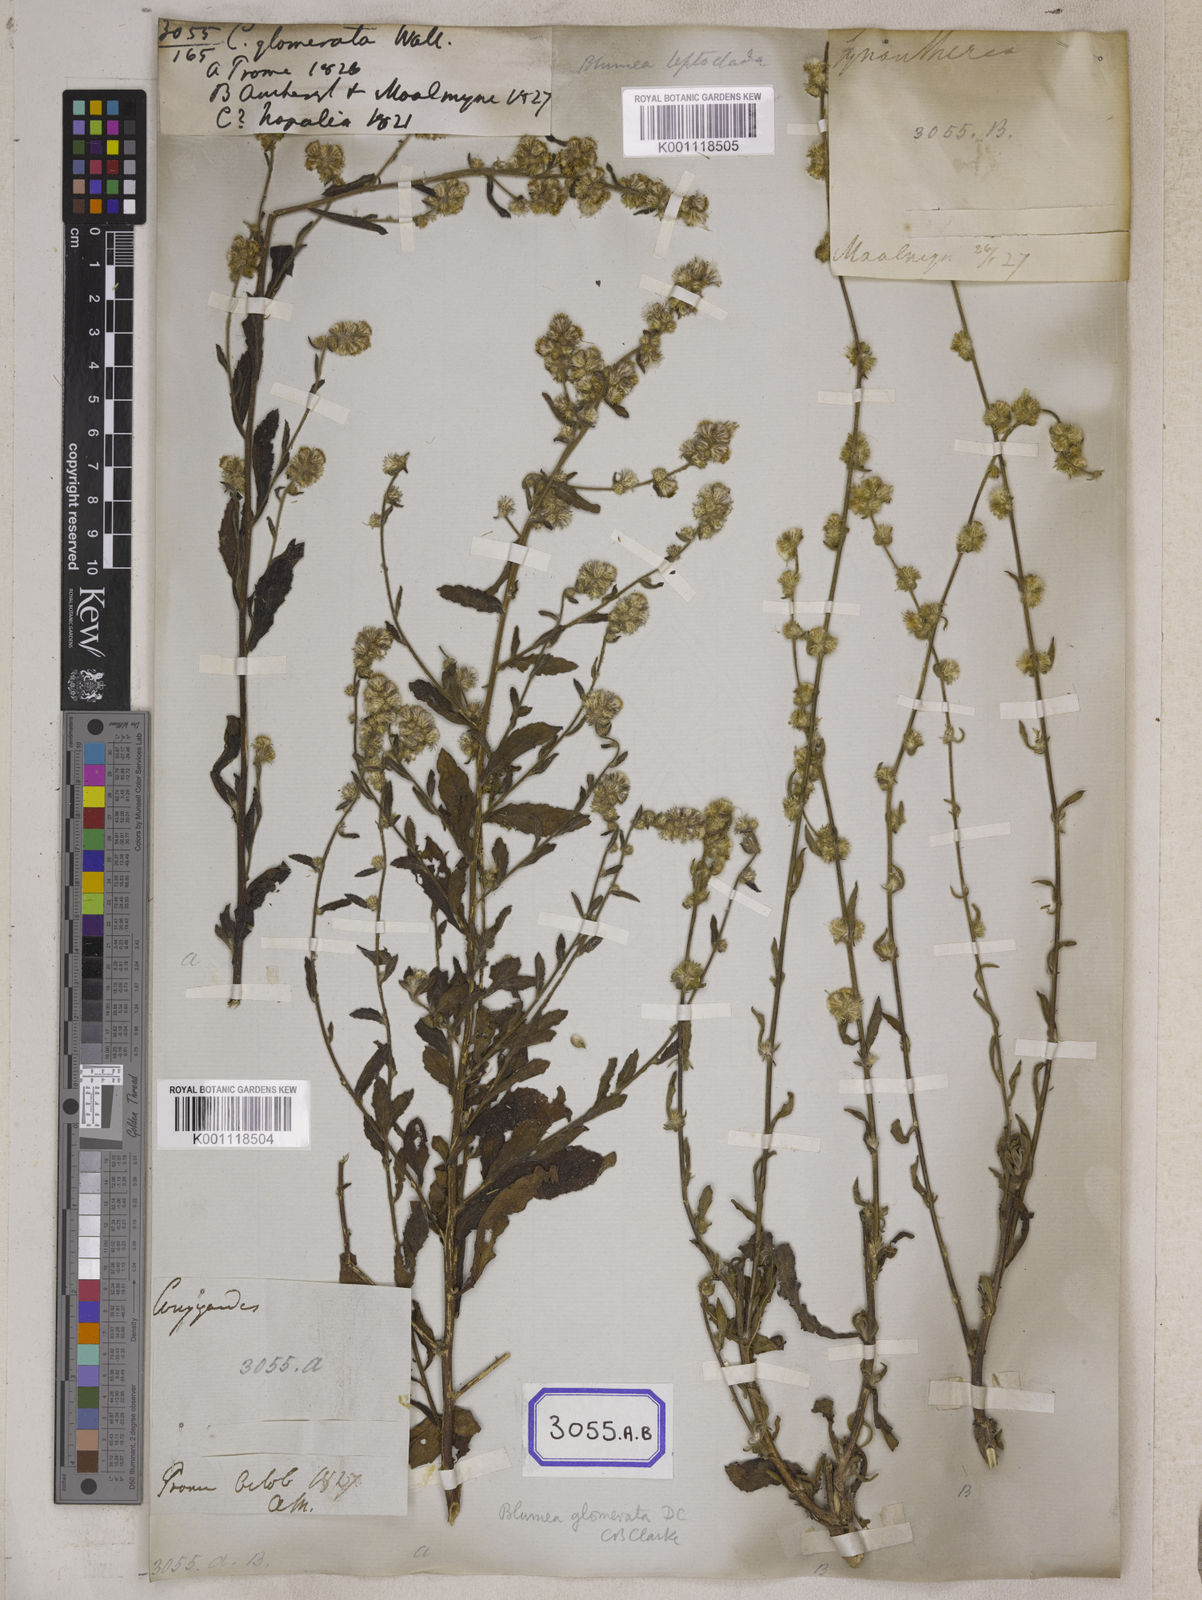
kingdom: Plantae
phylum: Tracheophyta
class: Magnoliopsida
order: Asterales
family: Asteraceae
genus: Blumea
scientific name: Blumea fistulosa
